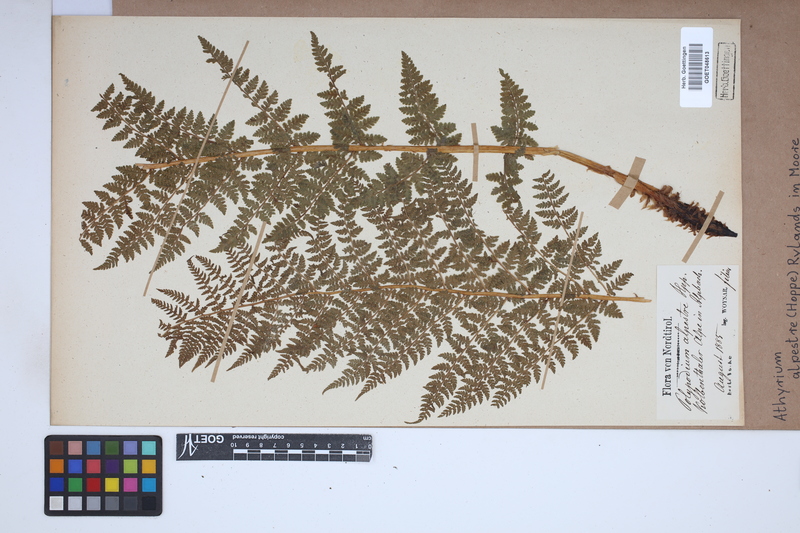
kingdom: Plantae
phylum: Tracheophyta
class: Polypodiopsida
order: Polypodiales
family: Athyriaceae
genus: Pseudathyrium
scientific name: Pseudathyrium alpestre
